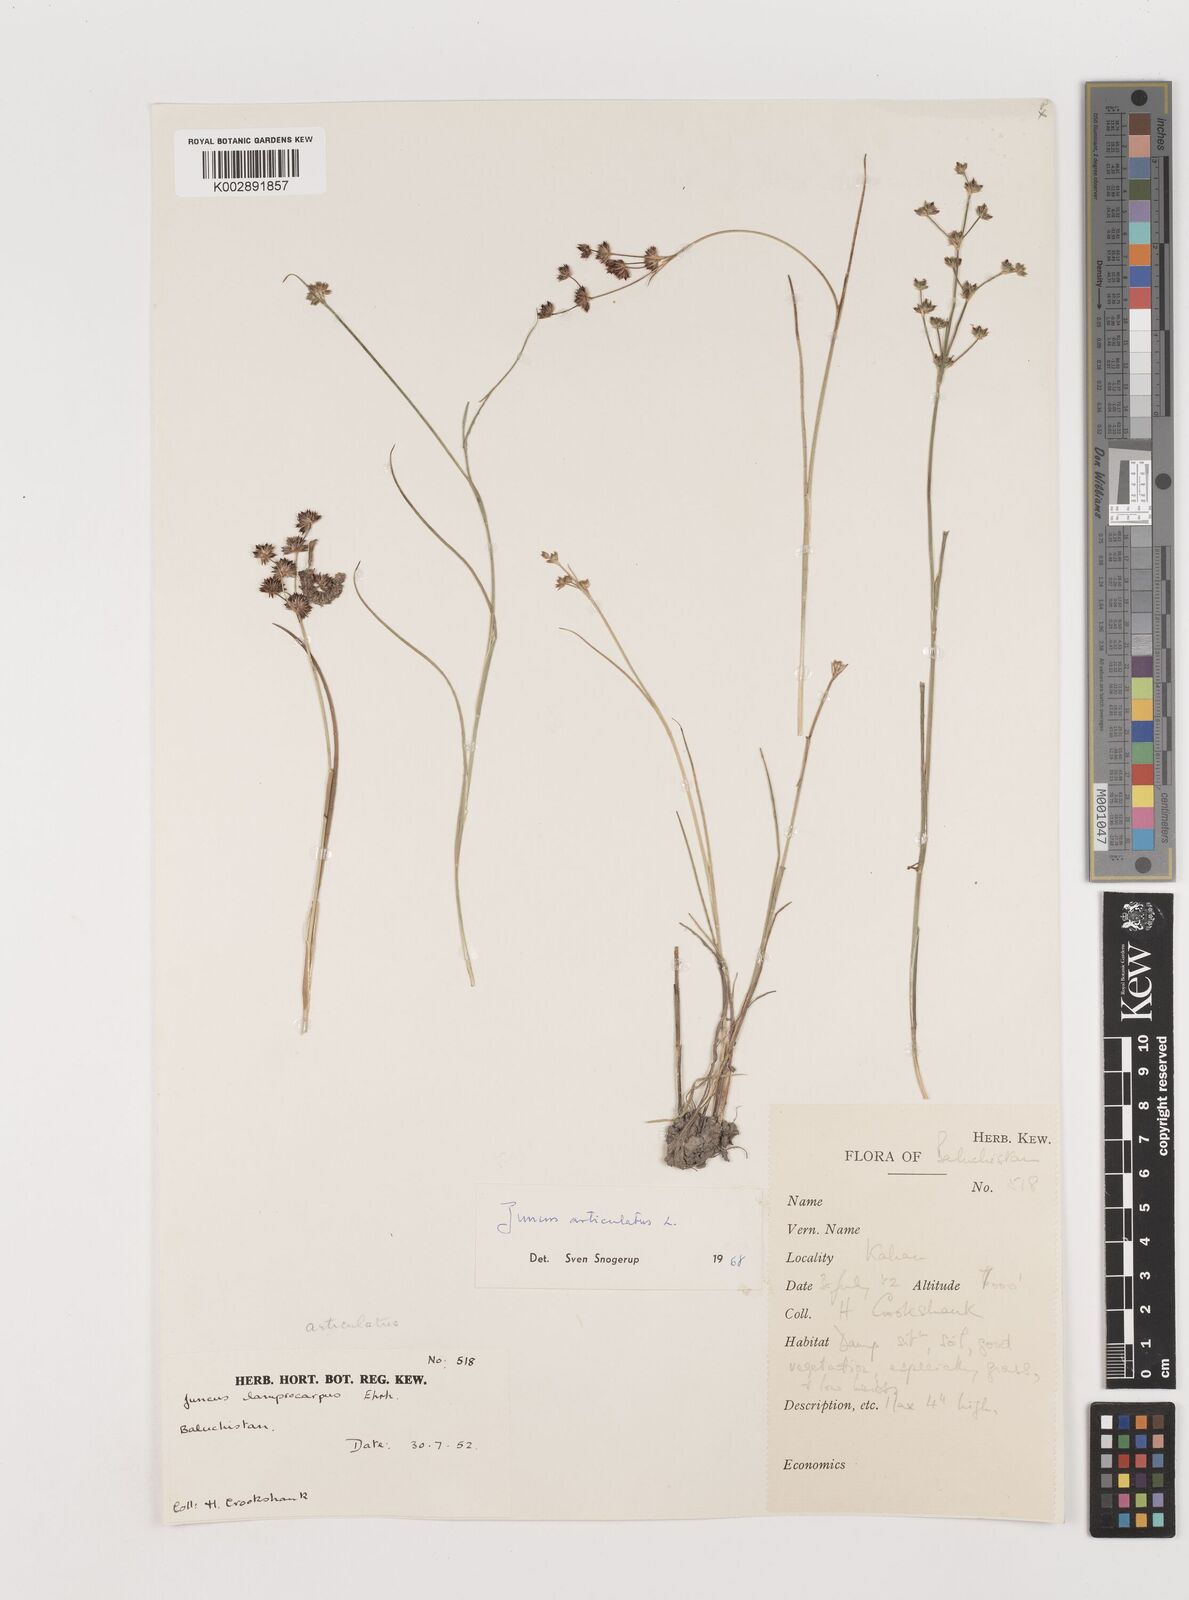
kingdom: Plantae
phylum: Tracheophyta
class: Liliopsida
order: Poales
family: Juncaceae
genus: Juncus
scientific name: Juncus articulatus
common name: Jointed rush
